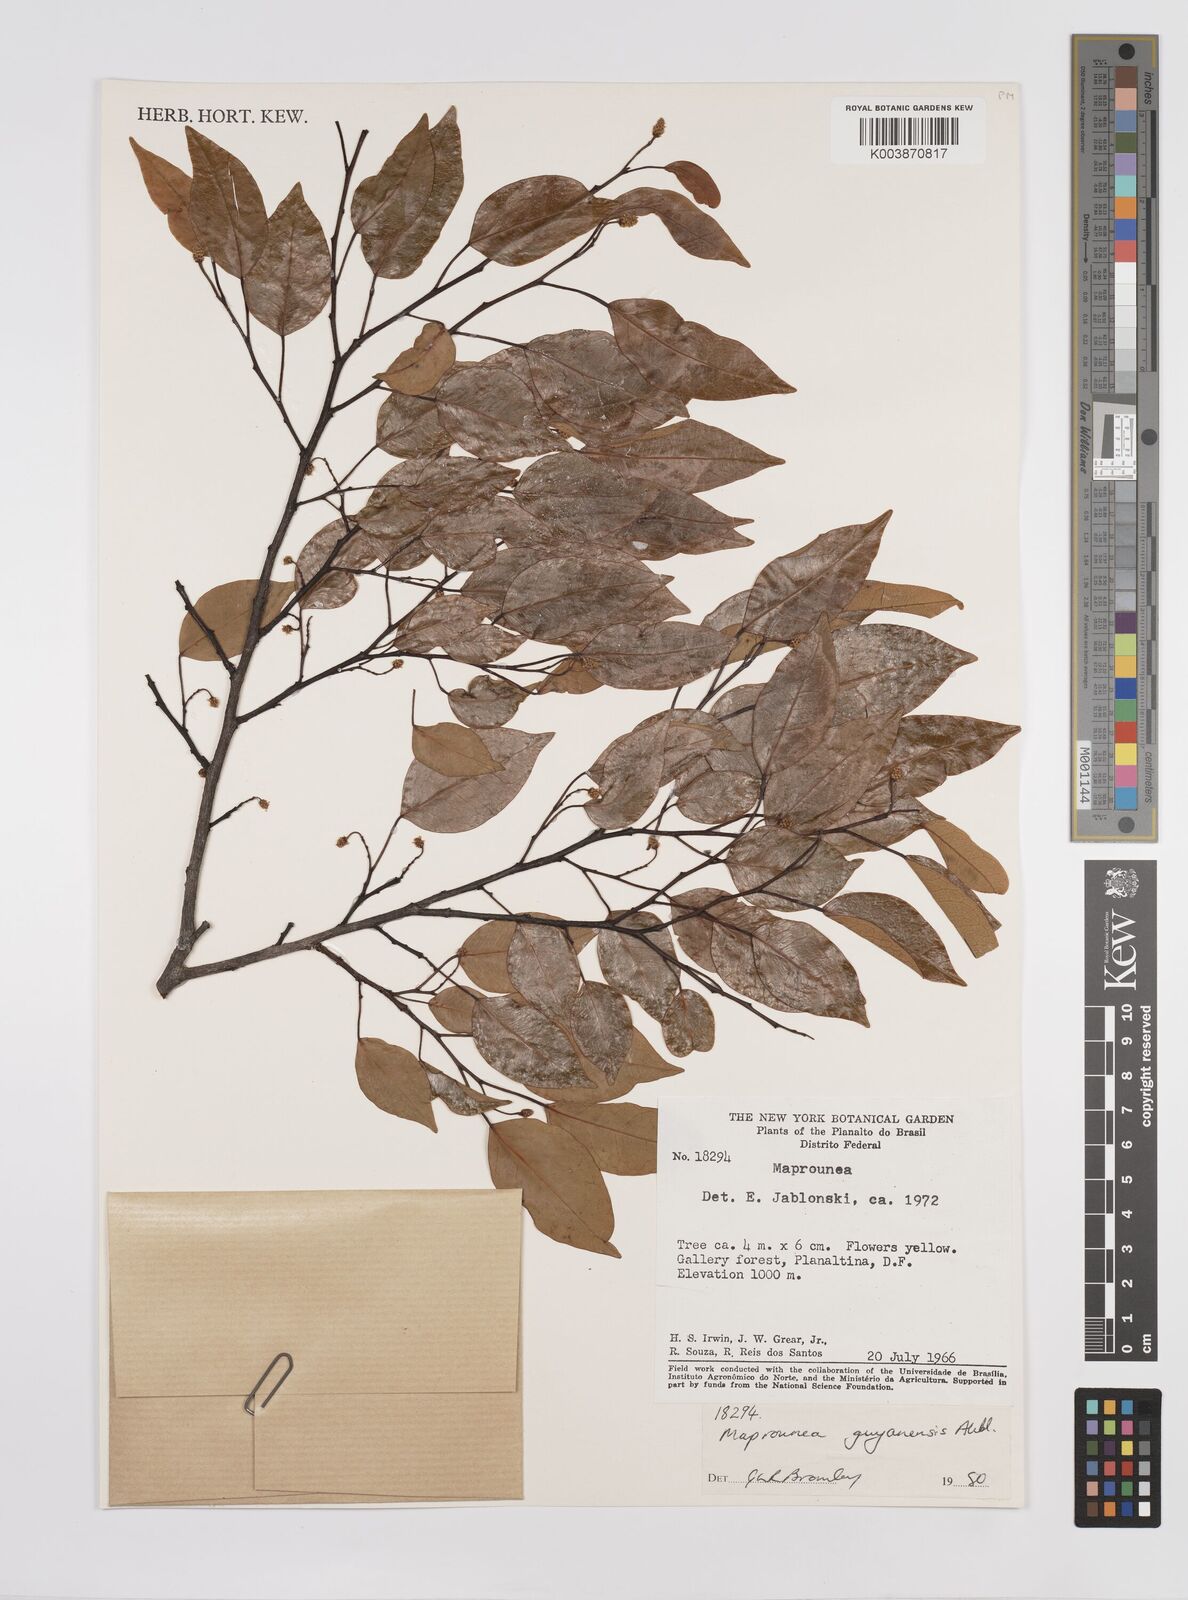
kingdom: Plantae
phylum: Tracheophyta
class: Magnoliopsida
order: Malpighiales
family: Euphorbiaceae
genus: Maprounea
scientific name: Maprounea guianensis
